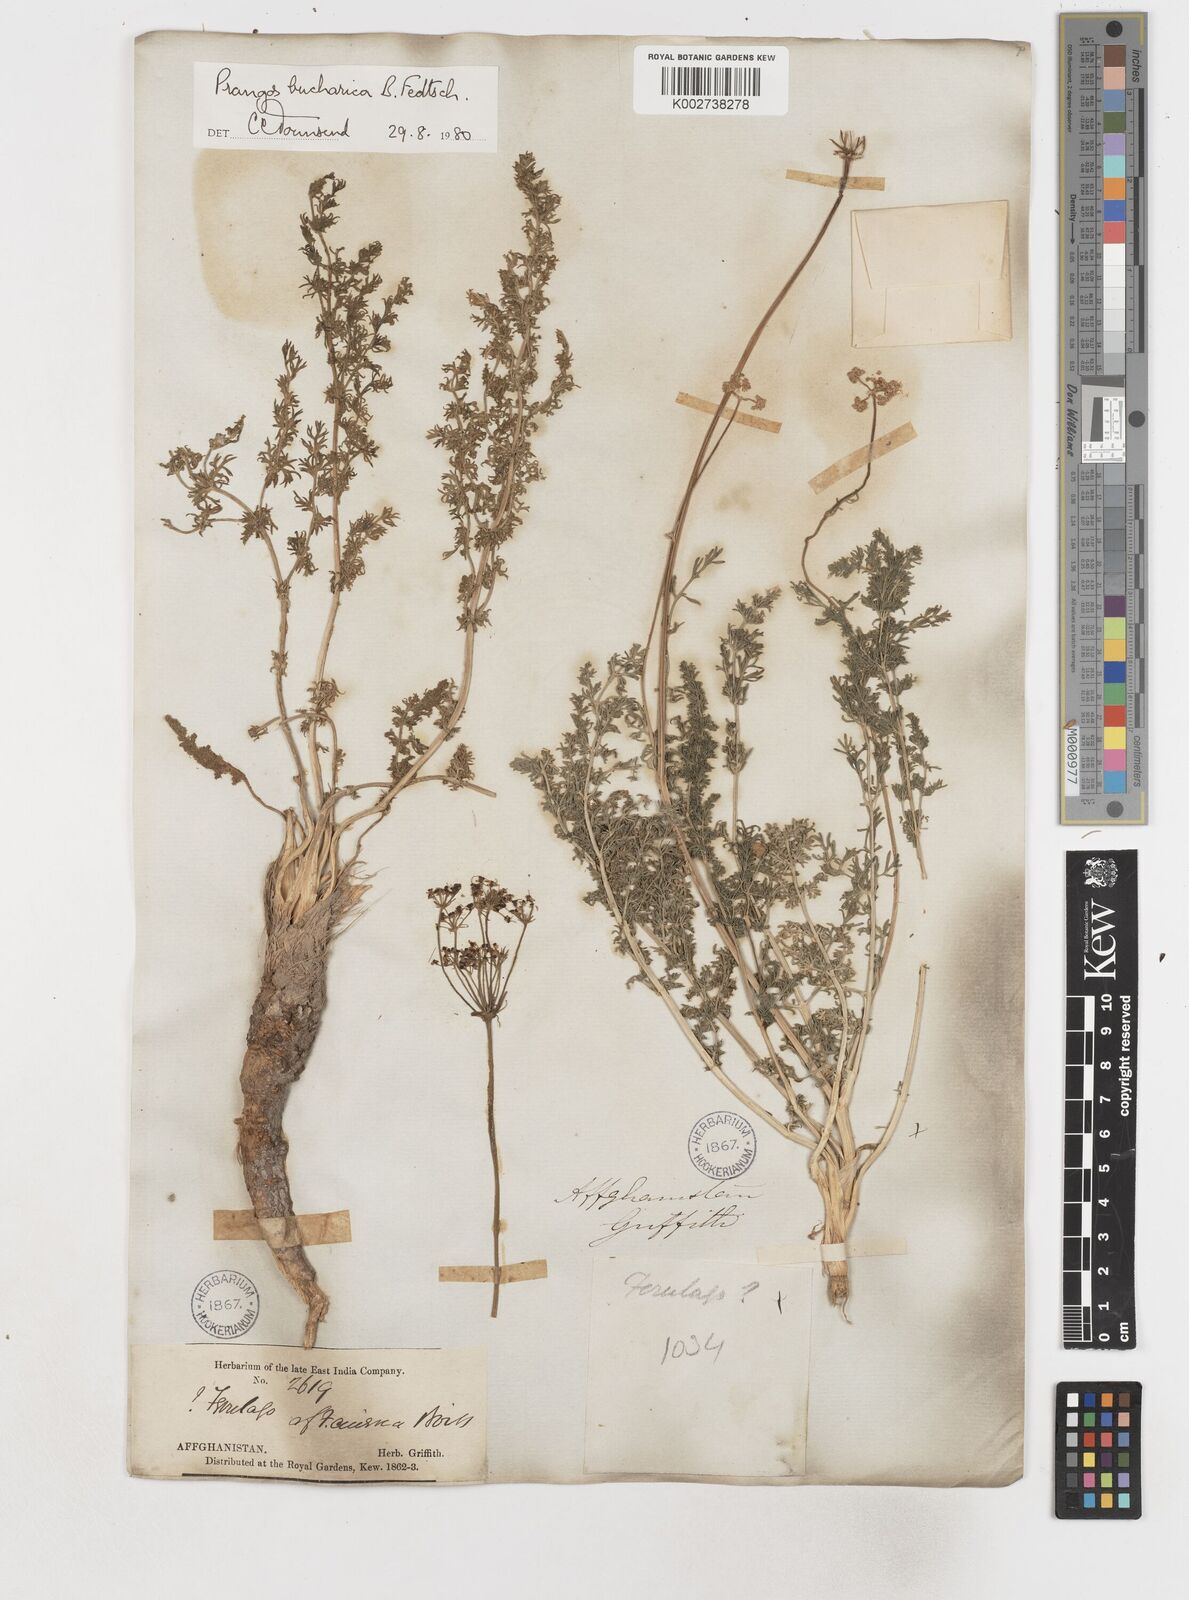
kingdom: Plantae
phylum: Tracheophyta
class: Magnoliopsida
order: Apiales
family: Apiaceae
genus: Prangos
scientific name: Prangos bucharica
